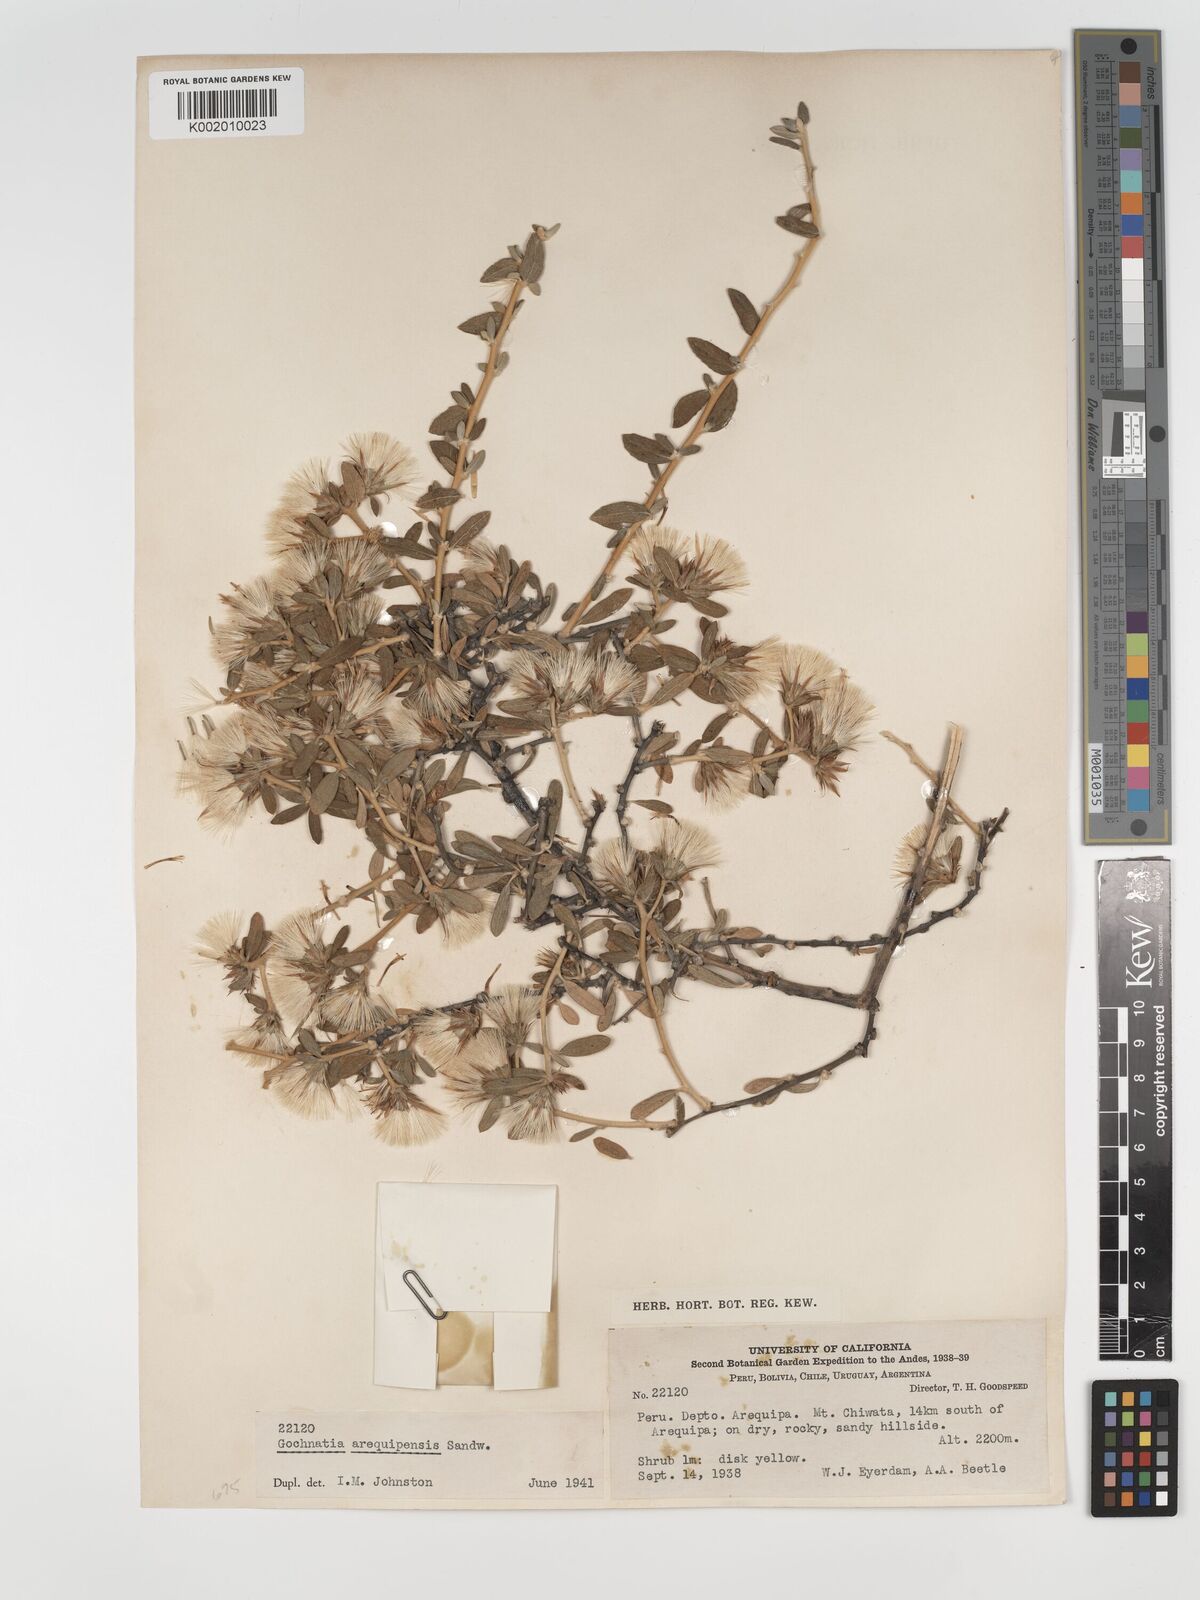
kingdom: Plantae
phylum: Tracheophyta
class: Magnoliopsida
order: Asterales
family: Asteraceae
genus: Gochnatia
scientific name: Gochnatia arequipensis
